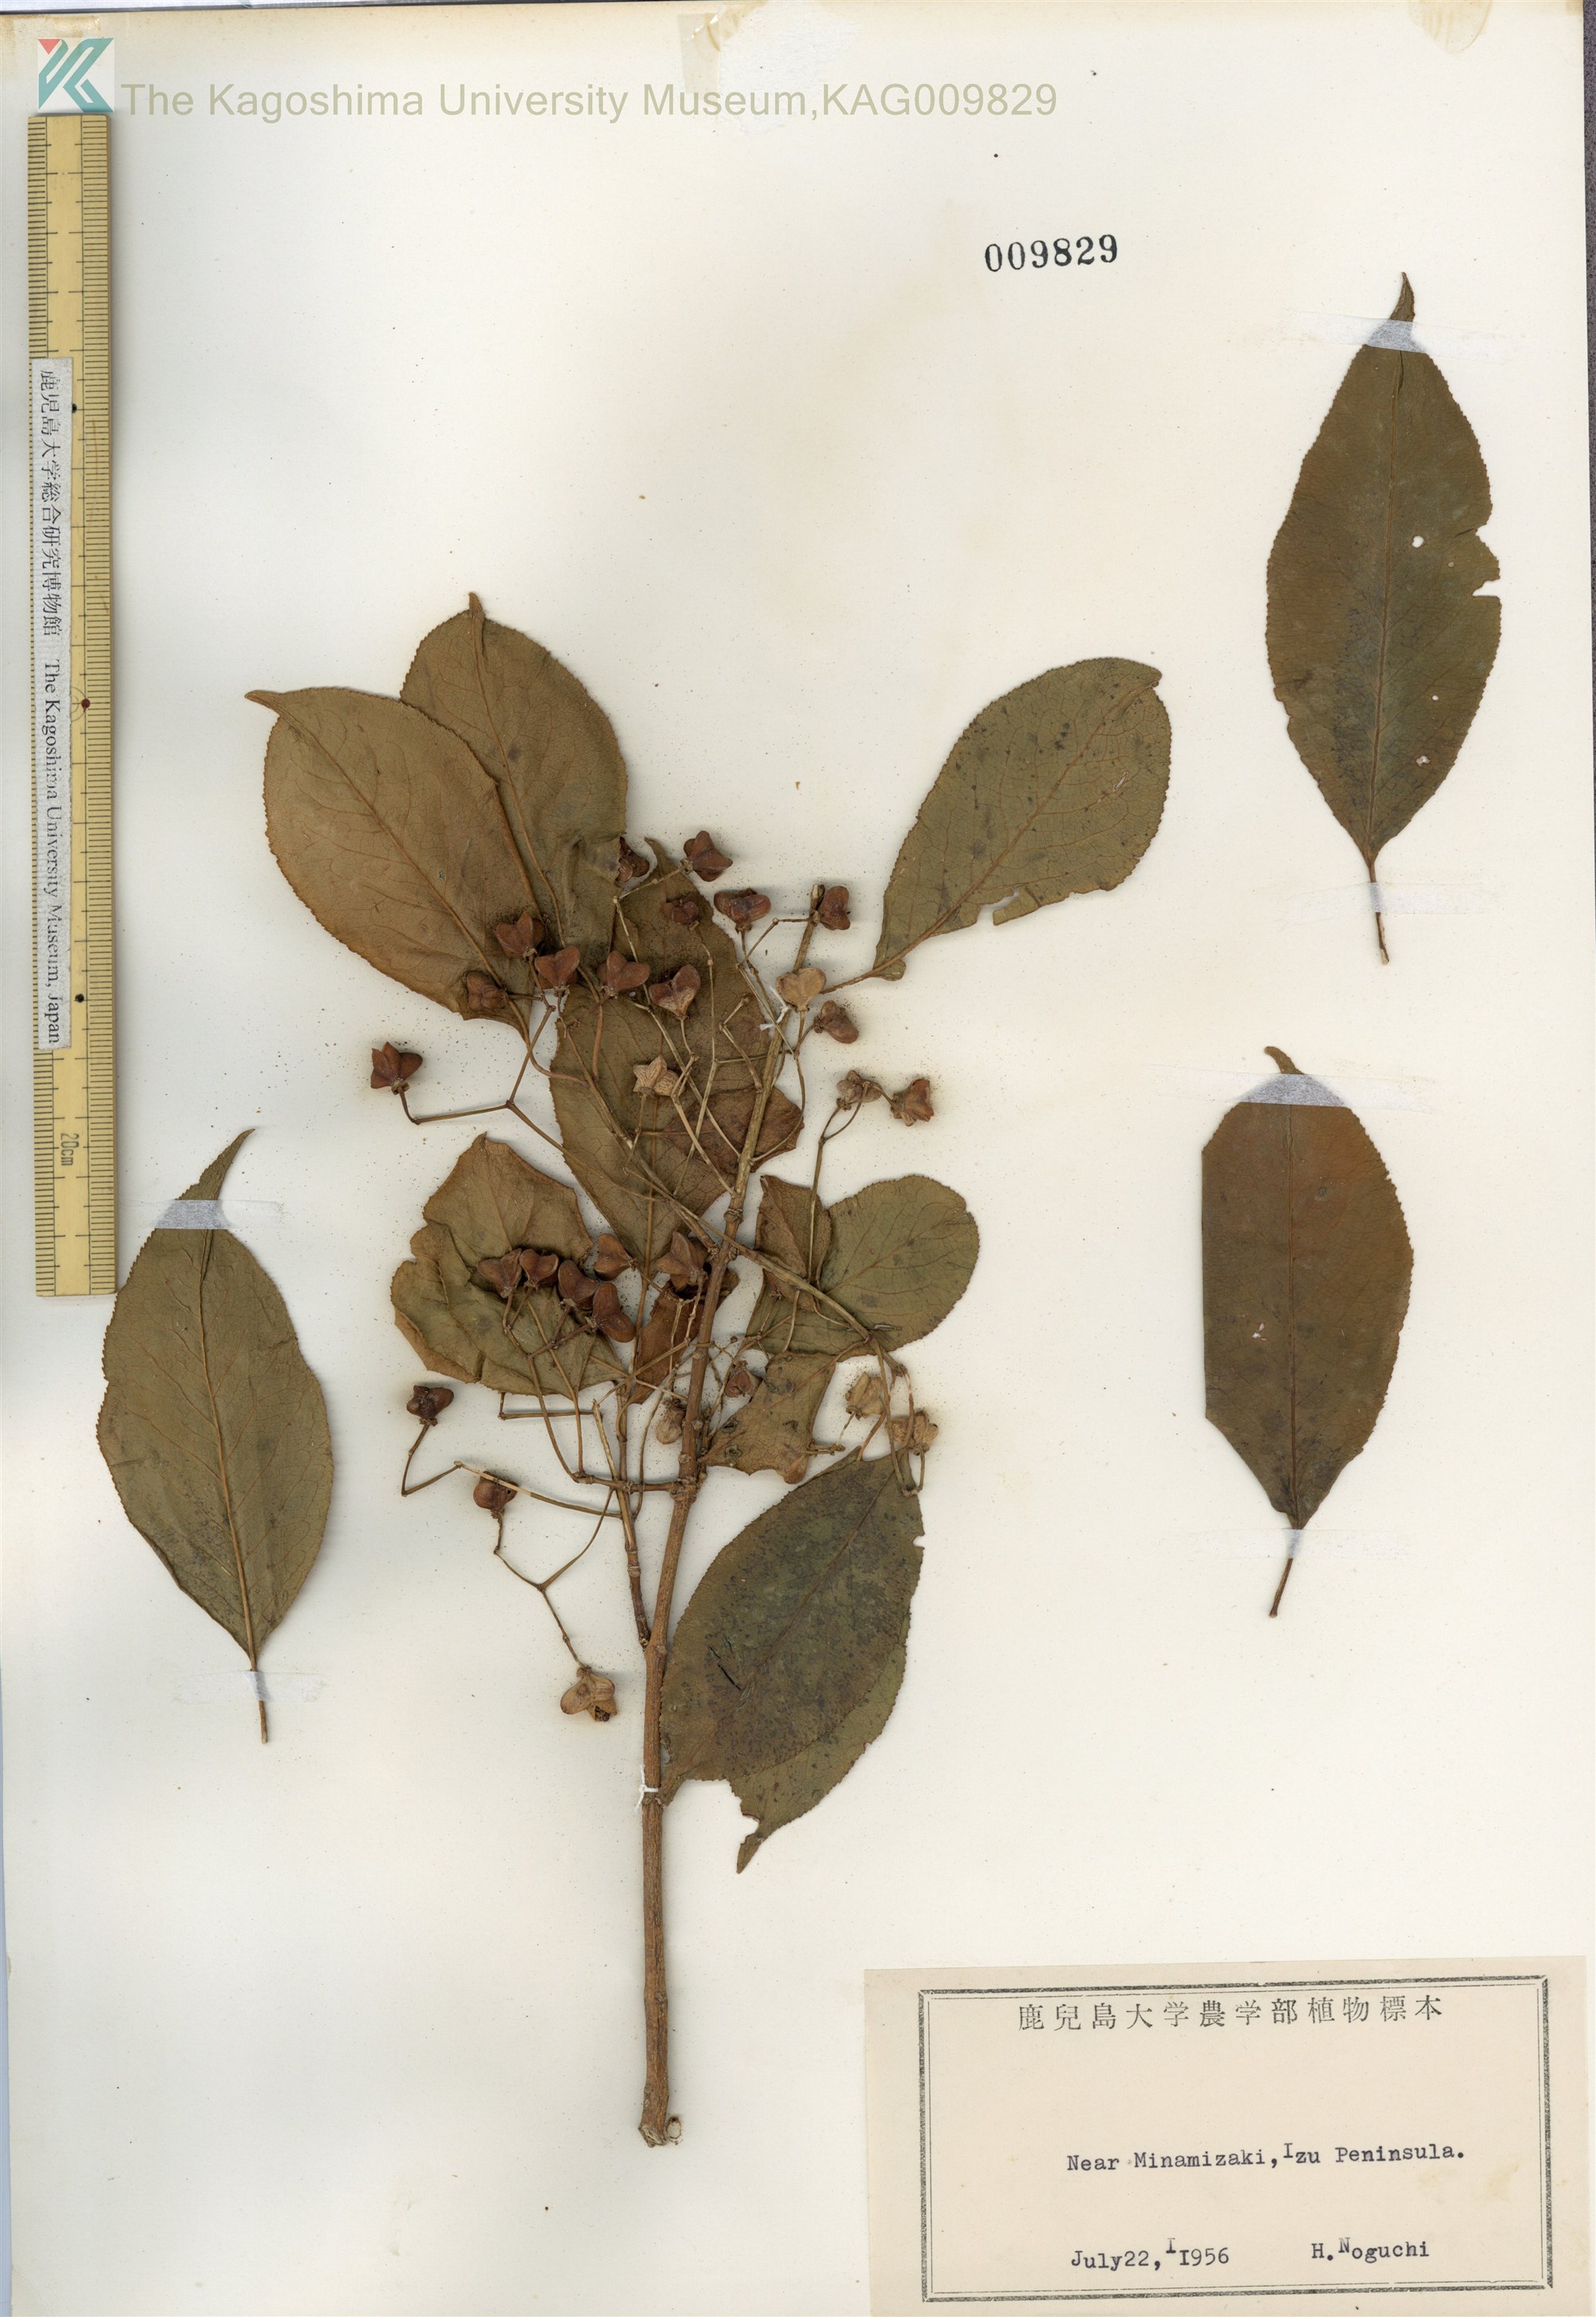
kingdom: Plantae
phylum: Tracheophyta
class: Magnoliopsida
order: Celastrales
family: Celastraceae
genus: Euonymus
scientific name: Euonymus hamiltonianus
